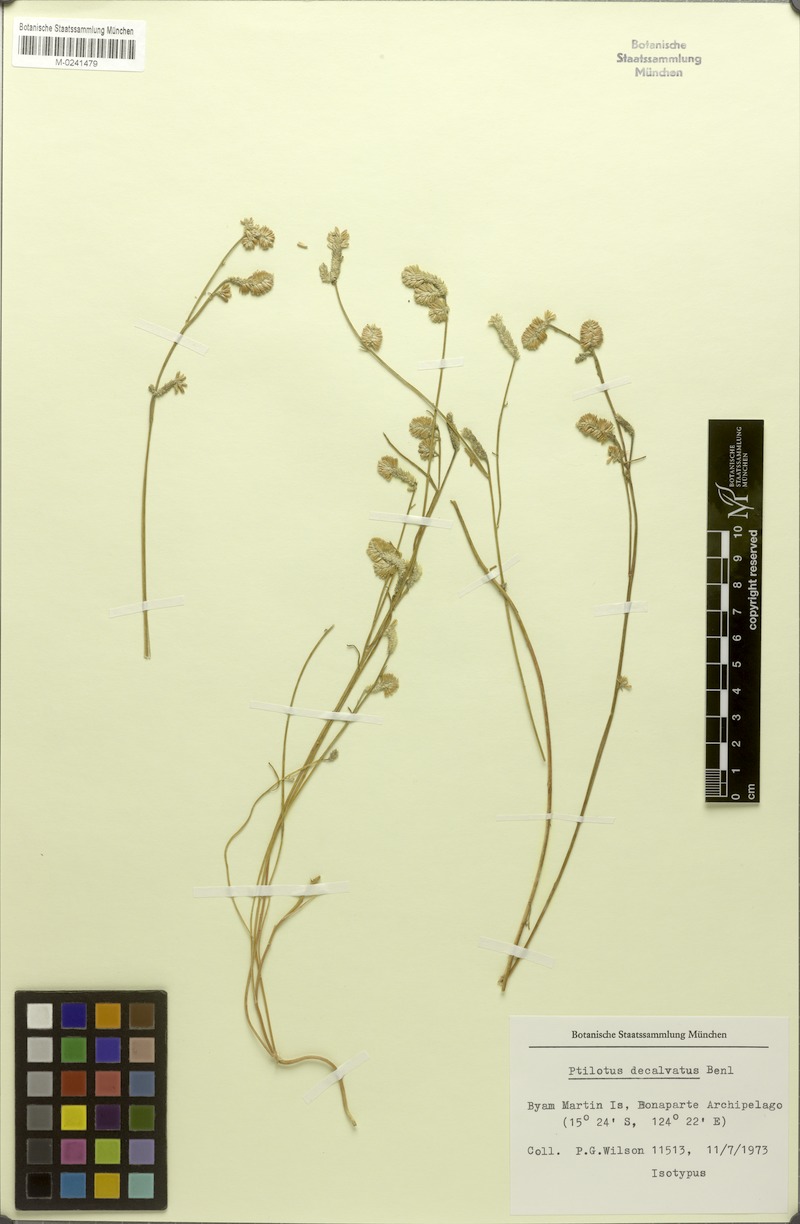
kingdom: Plantae
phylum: Tracheophyta
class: Magnoliopsida
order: Caryophyllales
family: Amaranthaceae
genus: Ptilotus
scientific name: Ptilotus decalvatus
